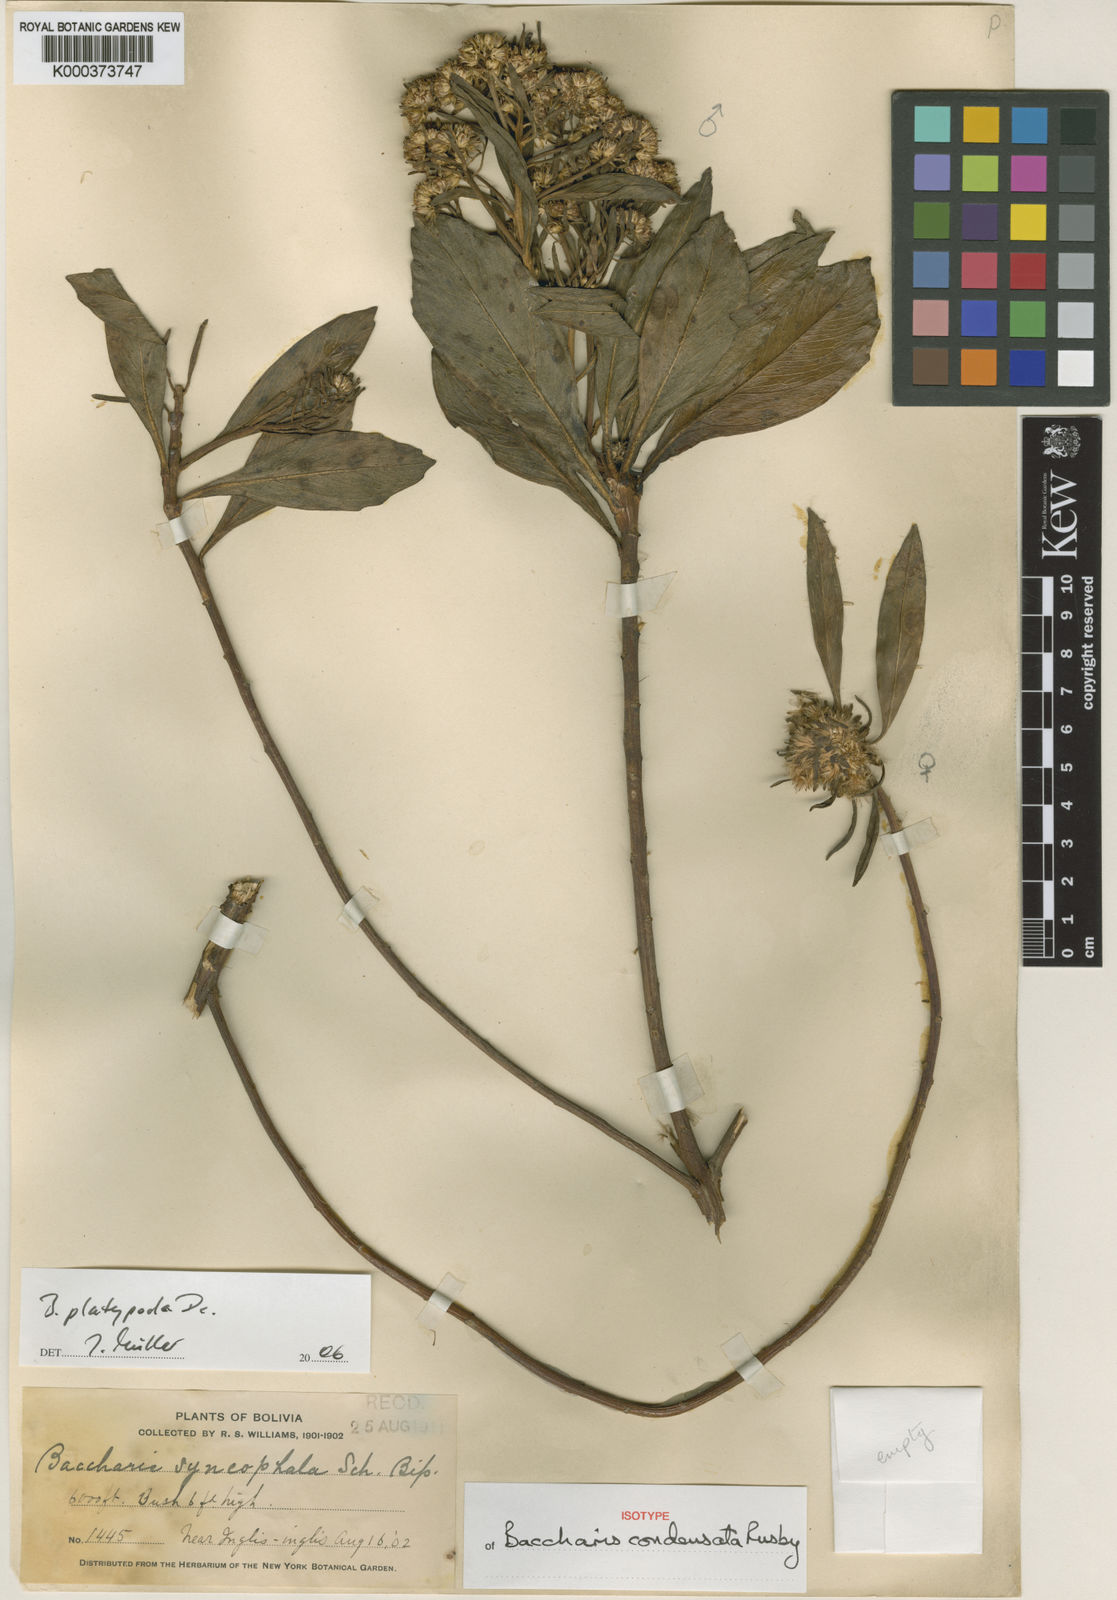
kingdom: Plantae
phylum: Tracheophyta
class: Magnoliopsida
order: Asterales
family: Asteraceae
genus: Baccharis
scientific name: Baccharis platypoda
